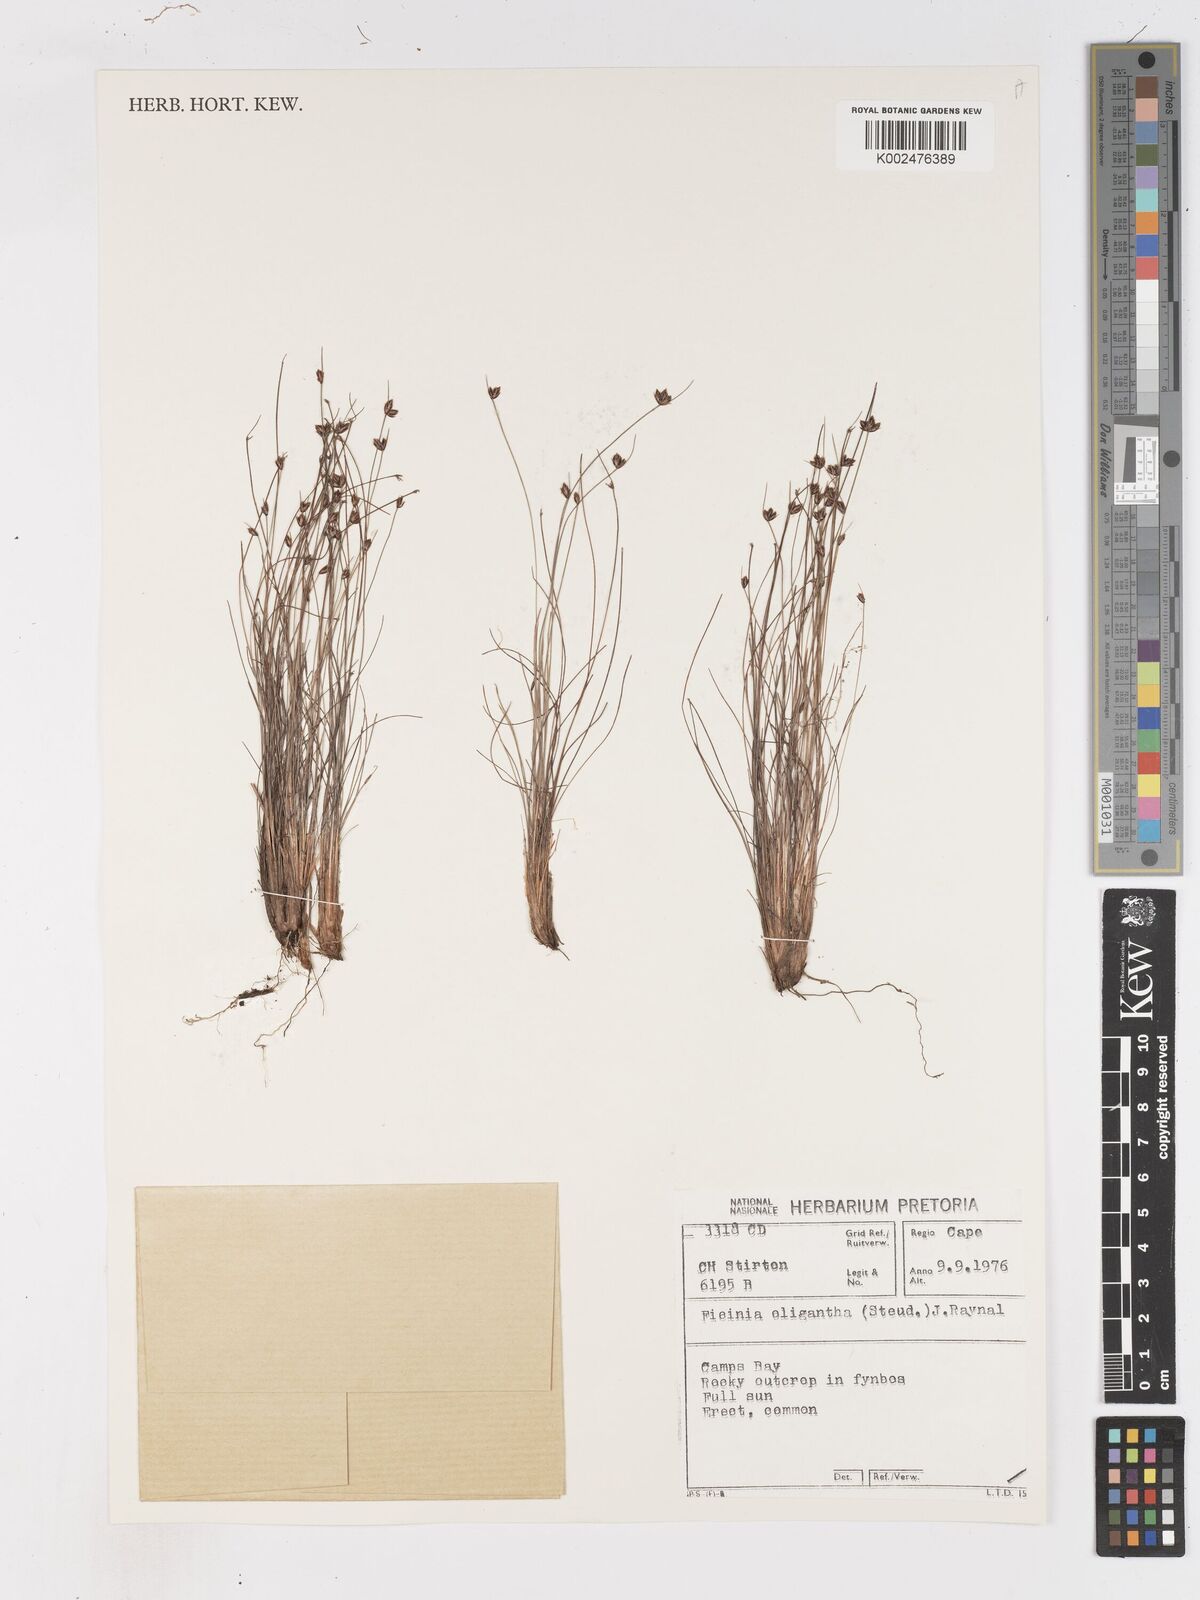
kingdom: Plantae
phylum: Tracheophyta
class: Liliopsida
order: Poales
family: Cyperaceae
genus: Ficinia
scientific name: Ficinia oligantha
